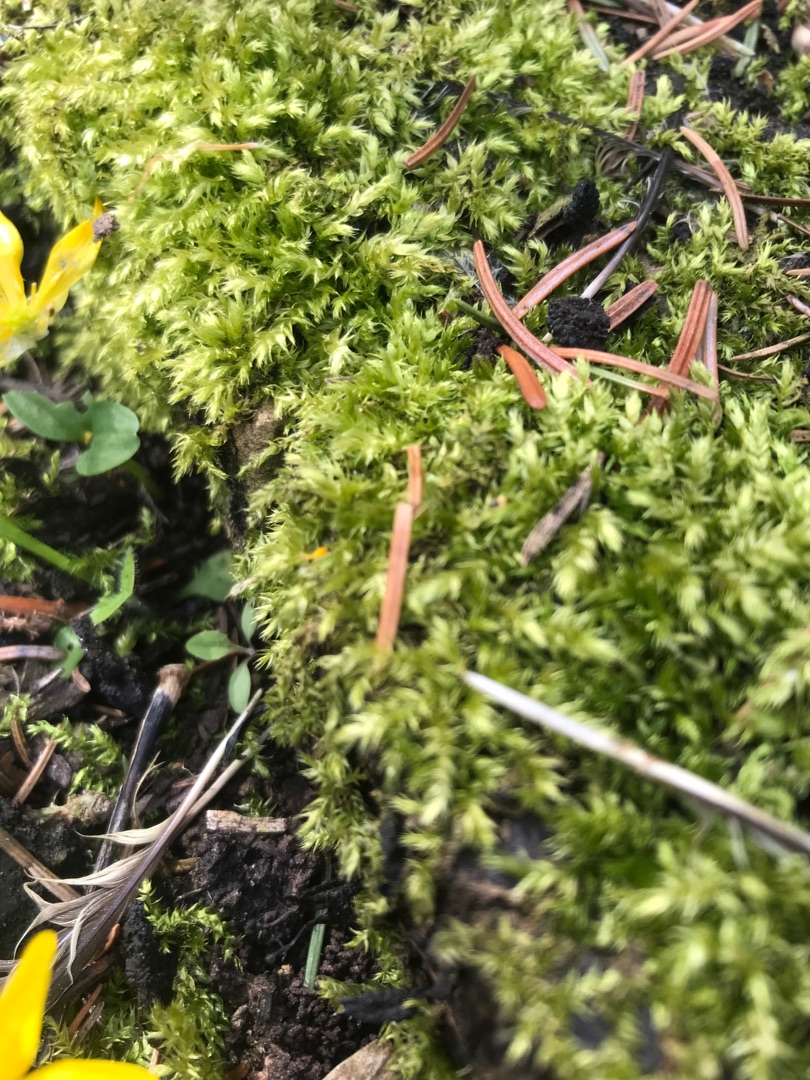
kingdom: Plantae
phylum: Bryophyta
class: Bryopsida
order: Hypnales
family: Brachytheciaceae
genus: Brachythecium
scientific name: Brachythecium rutabulum
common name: Almindelig kortkapsel
